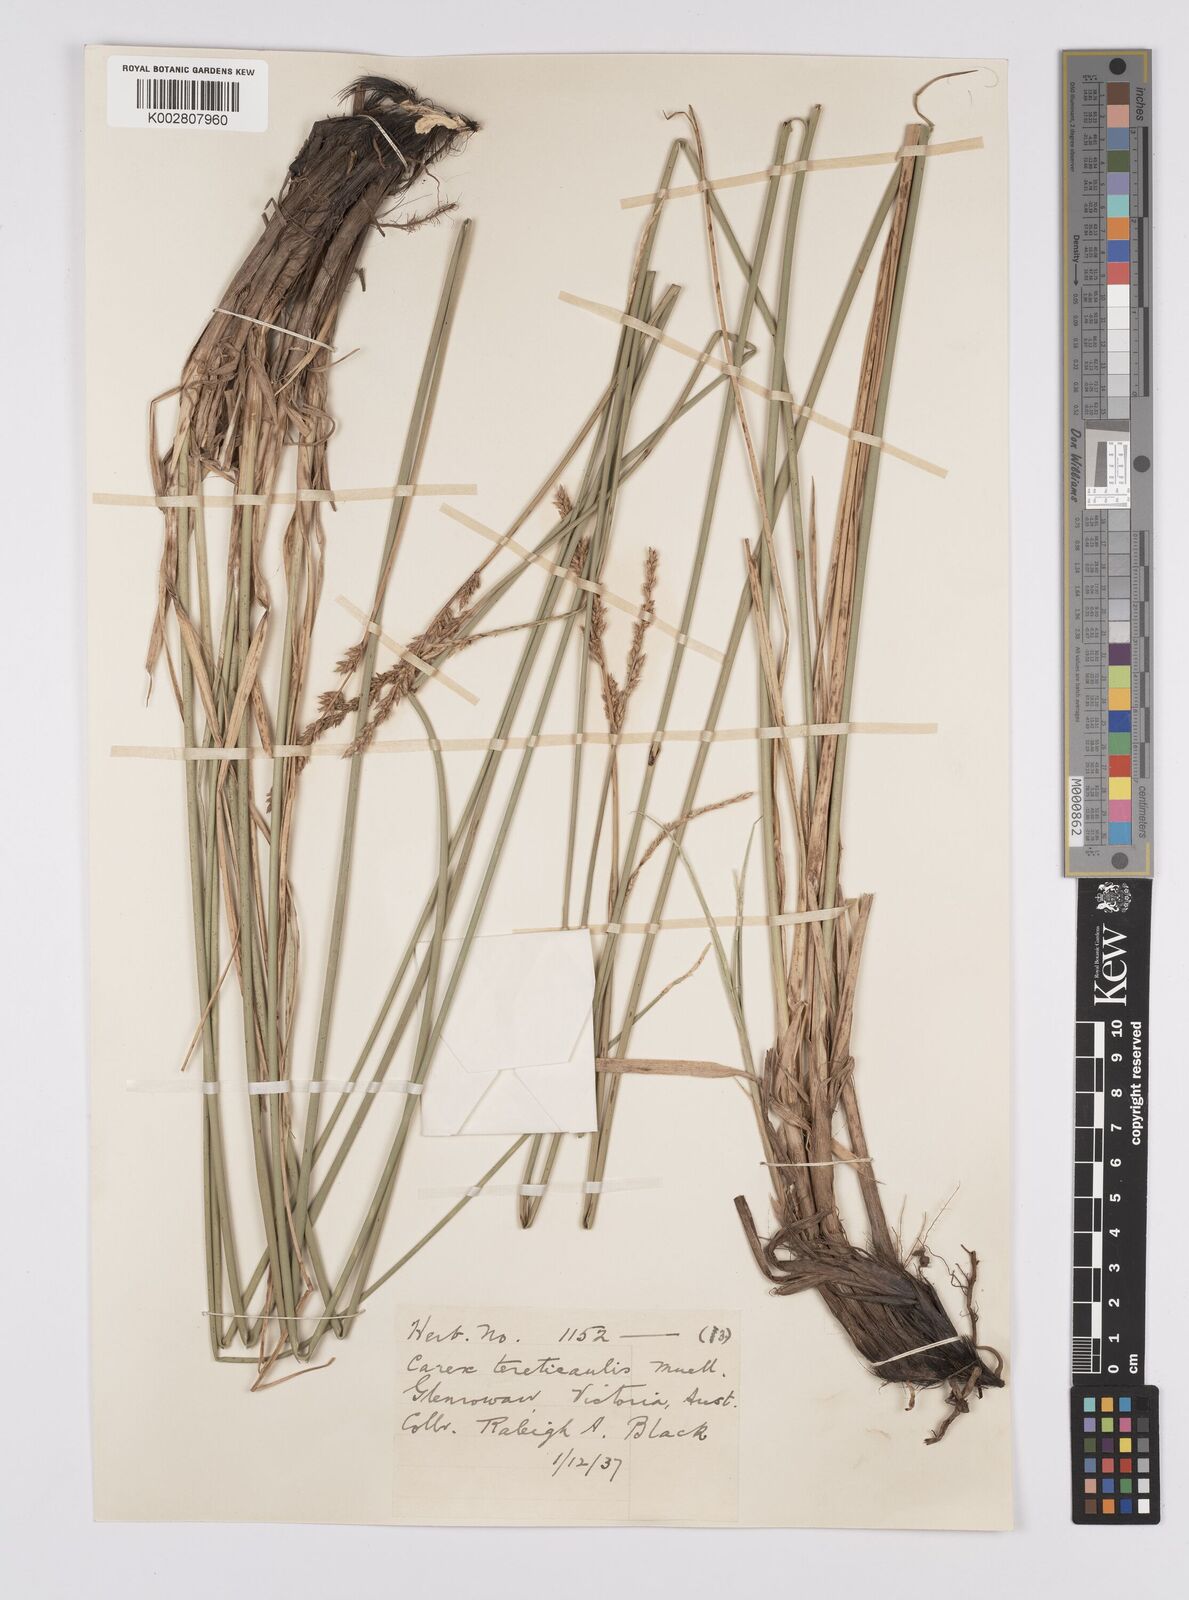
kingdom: Plantae
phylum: Tracheophyta
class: Liliopsida
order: Poales
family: Cyperaceae
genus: Carex
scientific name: Carex tereticaulis
